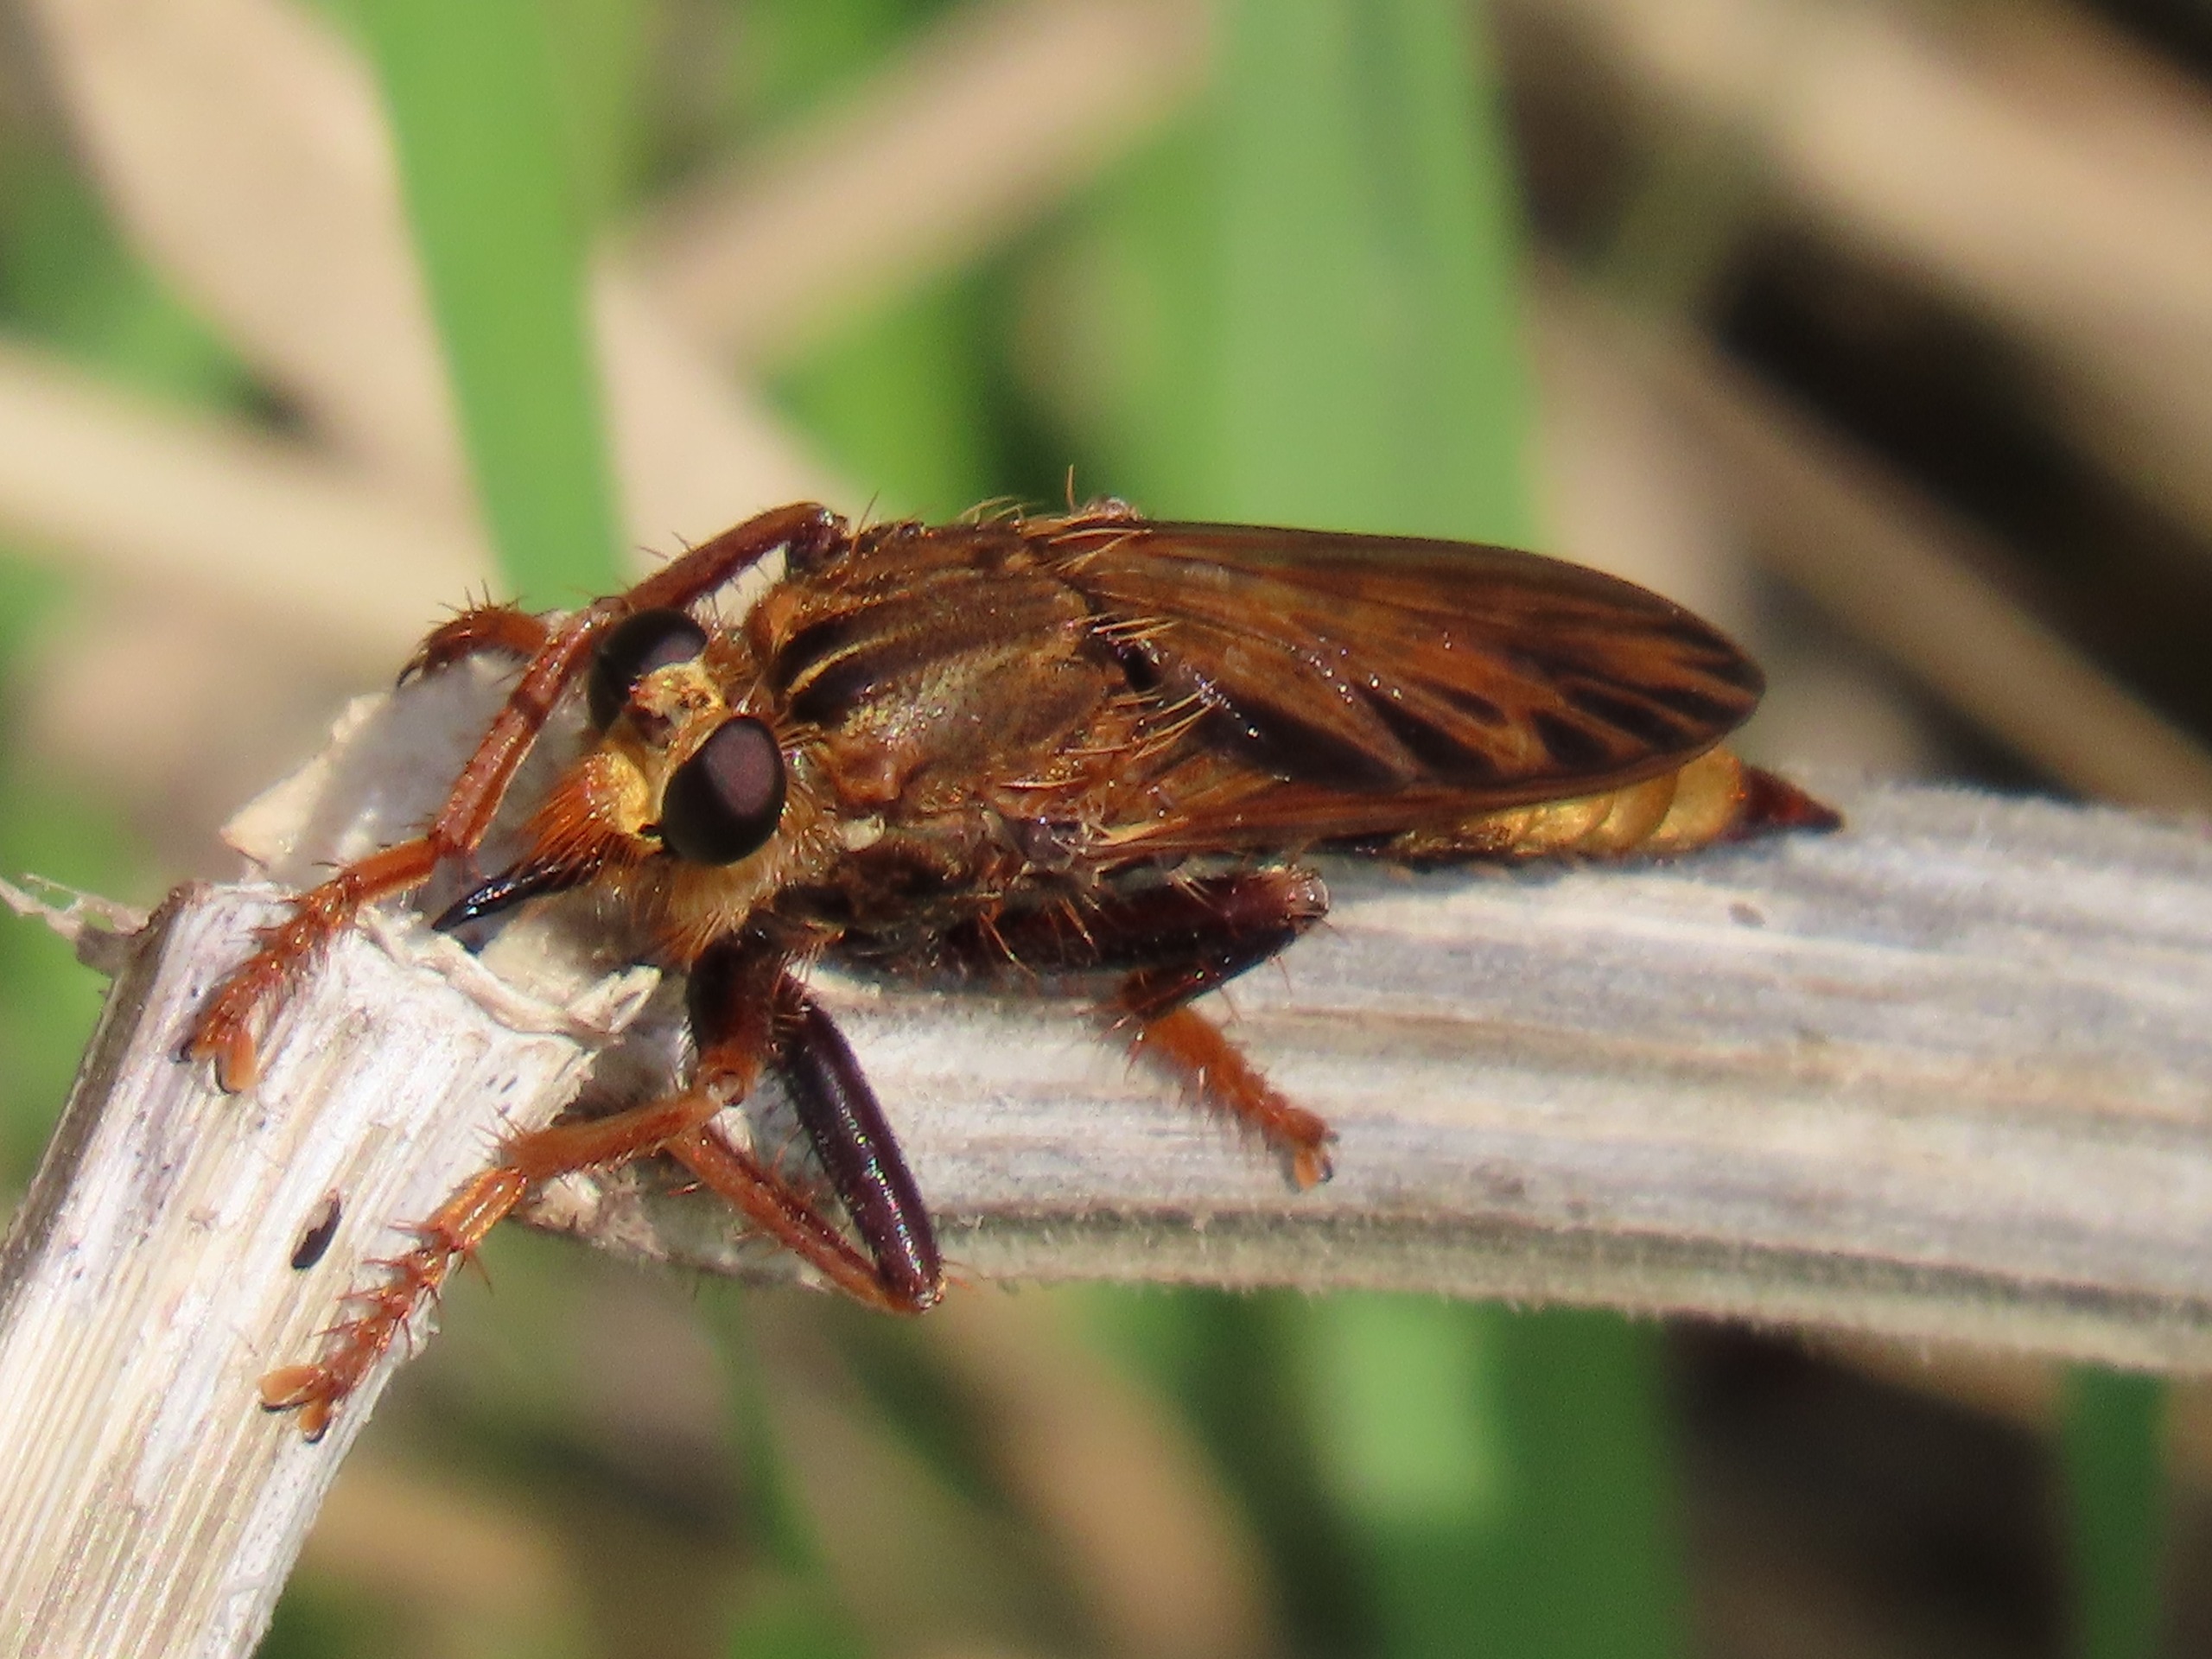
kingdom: Animalia
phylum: Arthropoda
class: Insecta
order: Diptera
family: Asilidae
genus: Asilus
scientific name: Asilus crabroniformis
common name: Stor gødningsrovflue
